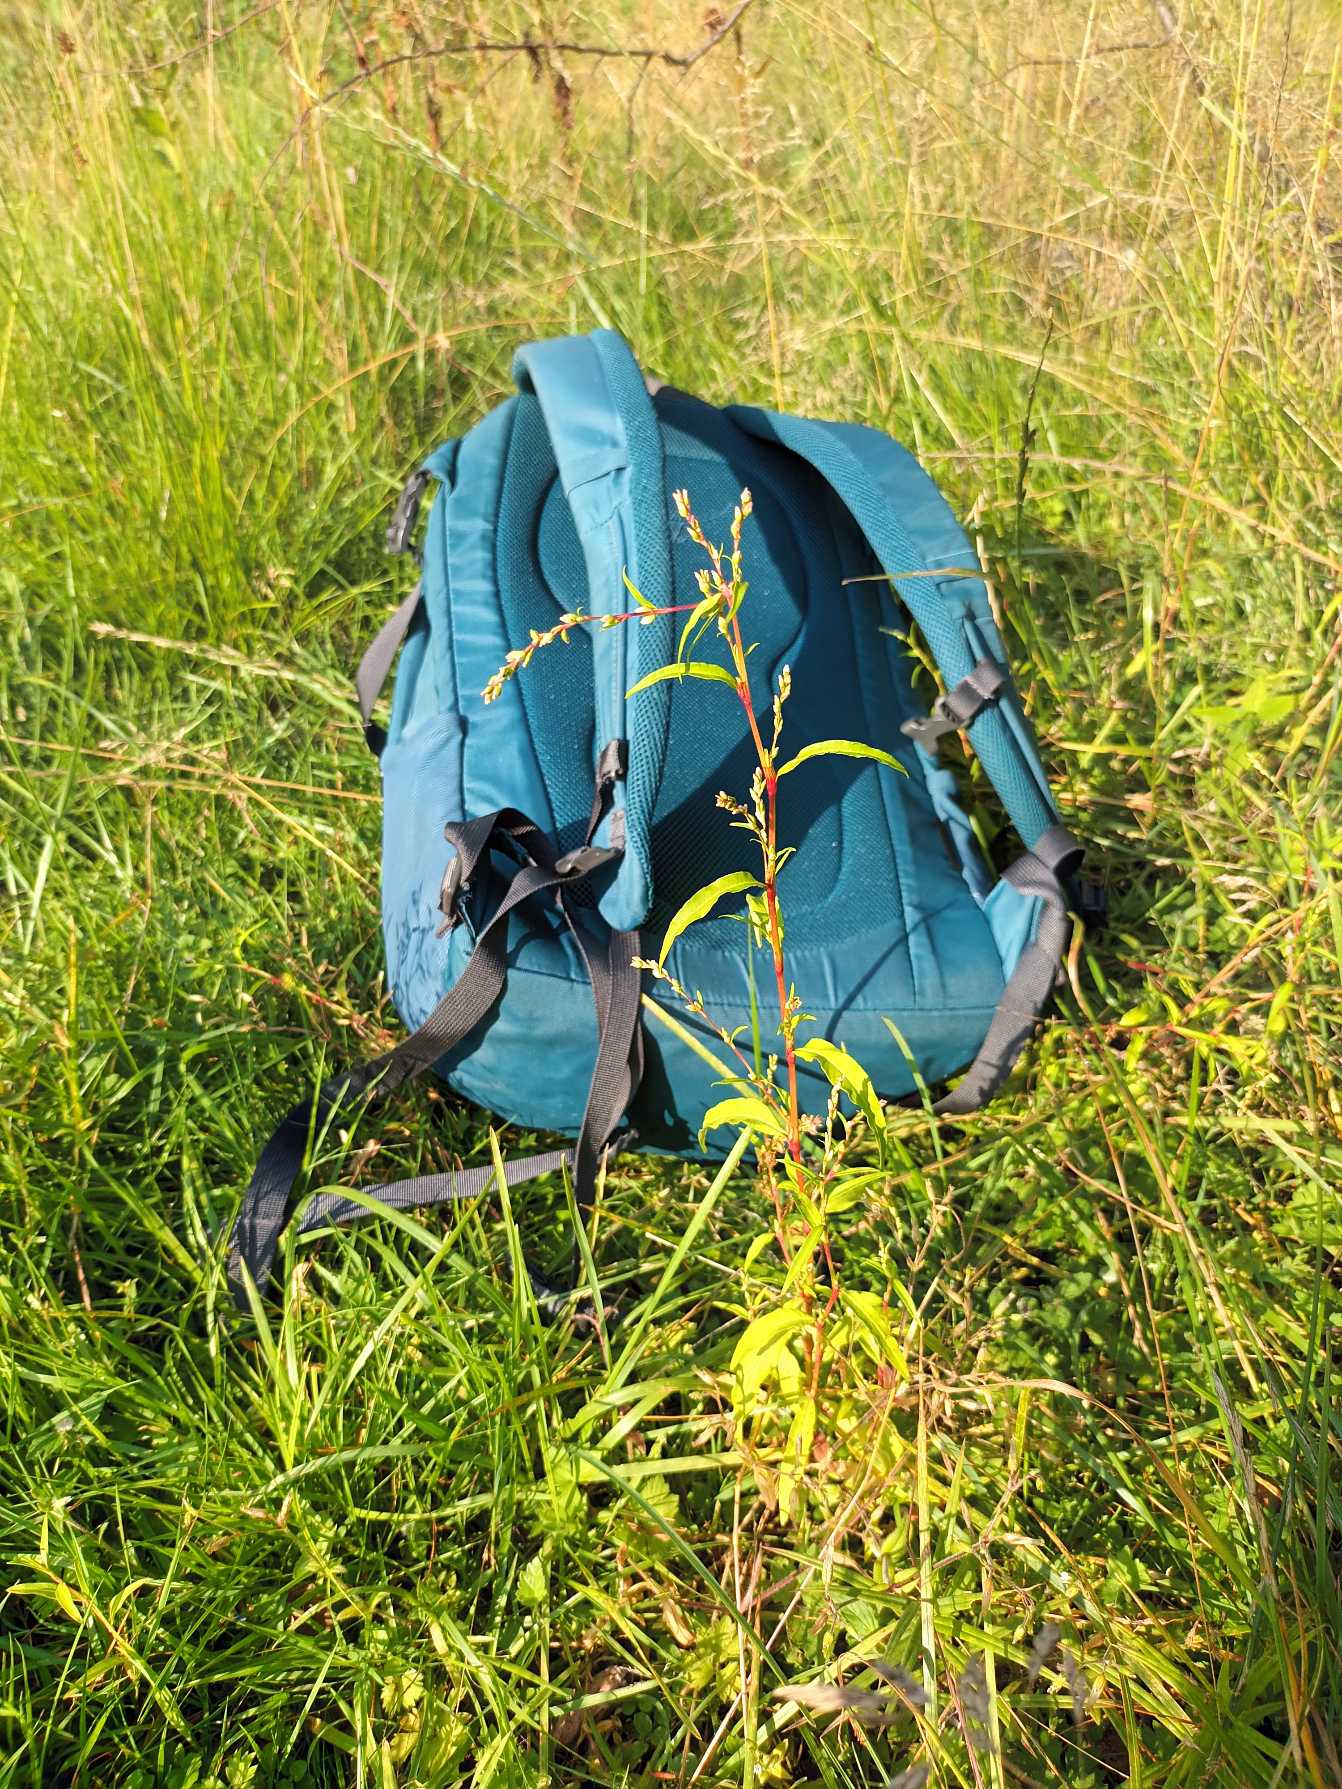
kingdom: Plantae
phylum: Tracheophyta
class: Magnoliopsida
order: Caryophyllales
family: Polygonaceae
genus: Persicaria
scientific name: Persicaria hydropiper
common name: Bidende pileurt
